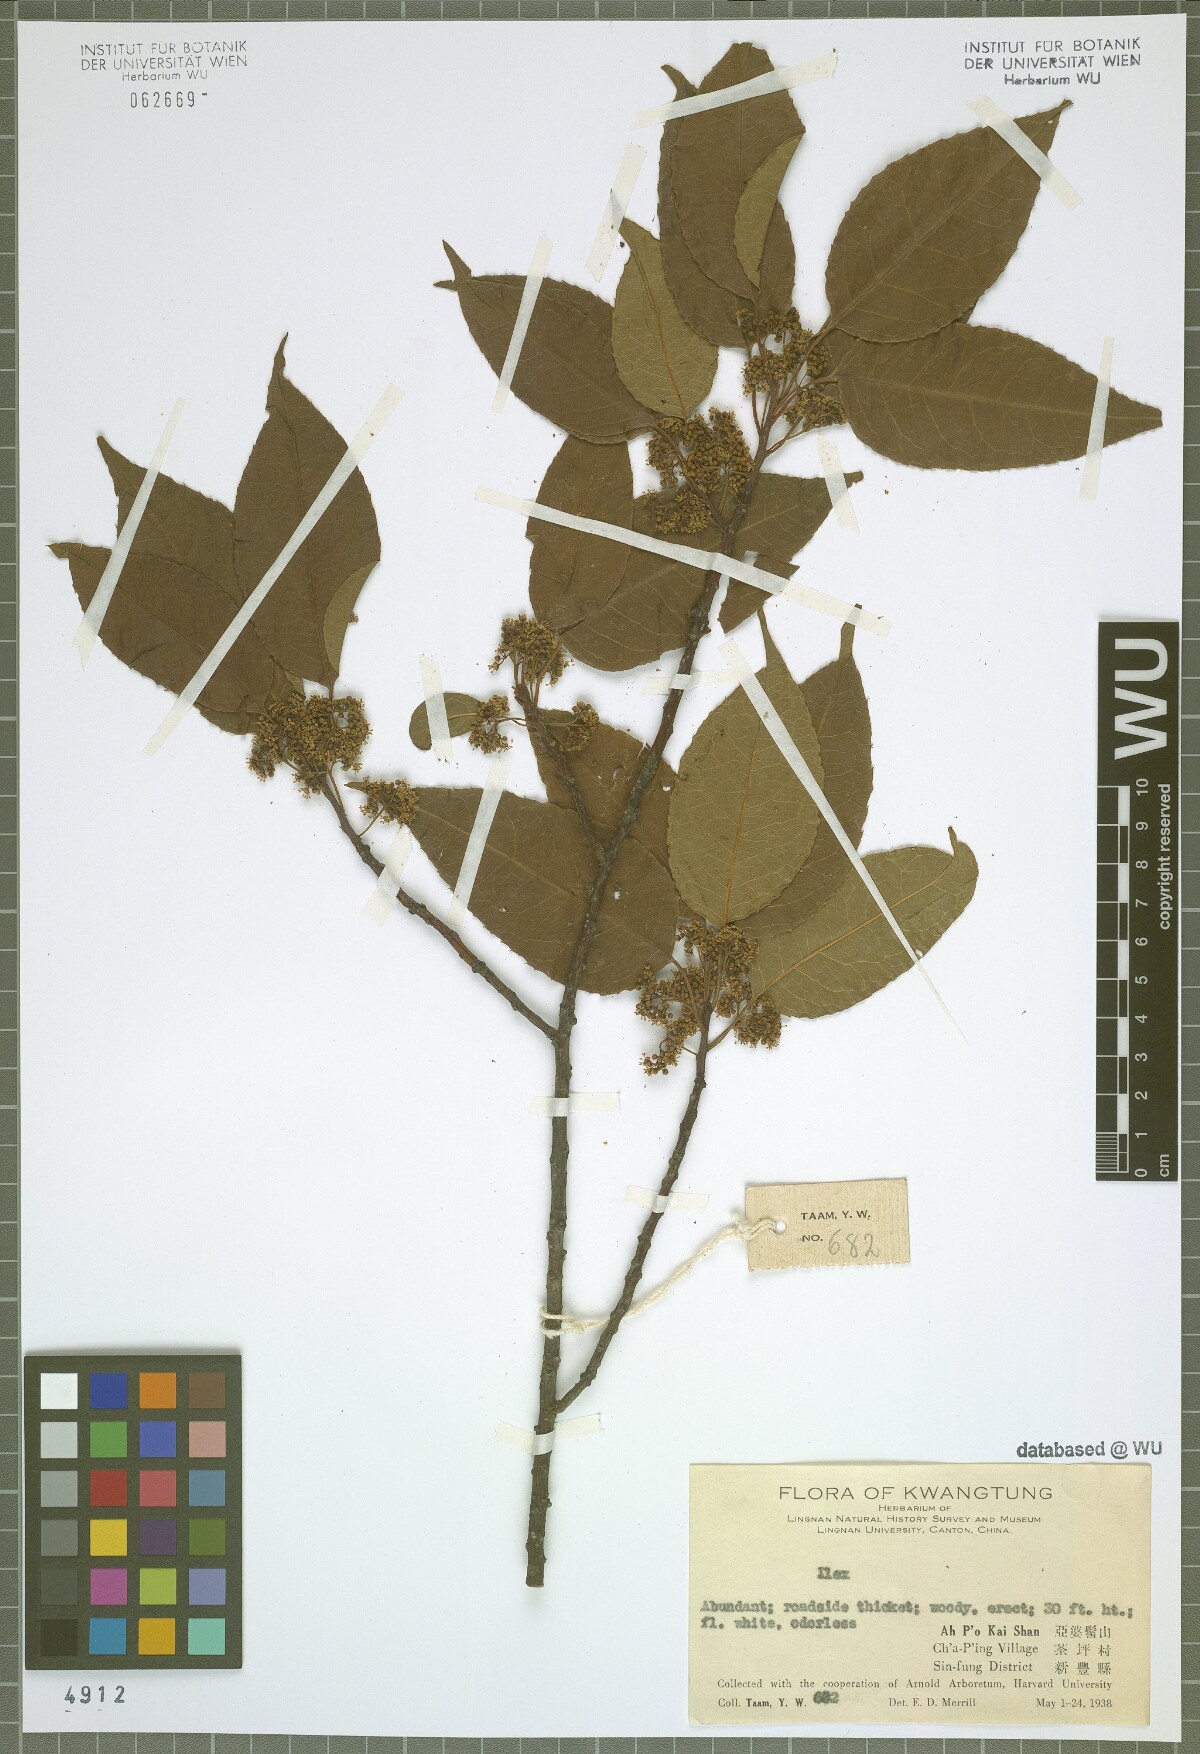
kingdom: Plantae
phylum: Tracheophyta
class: Magnoliopsida
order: Aquifoliales
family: Aquifoliaceae
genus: Ilex
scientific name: Ilex
